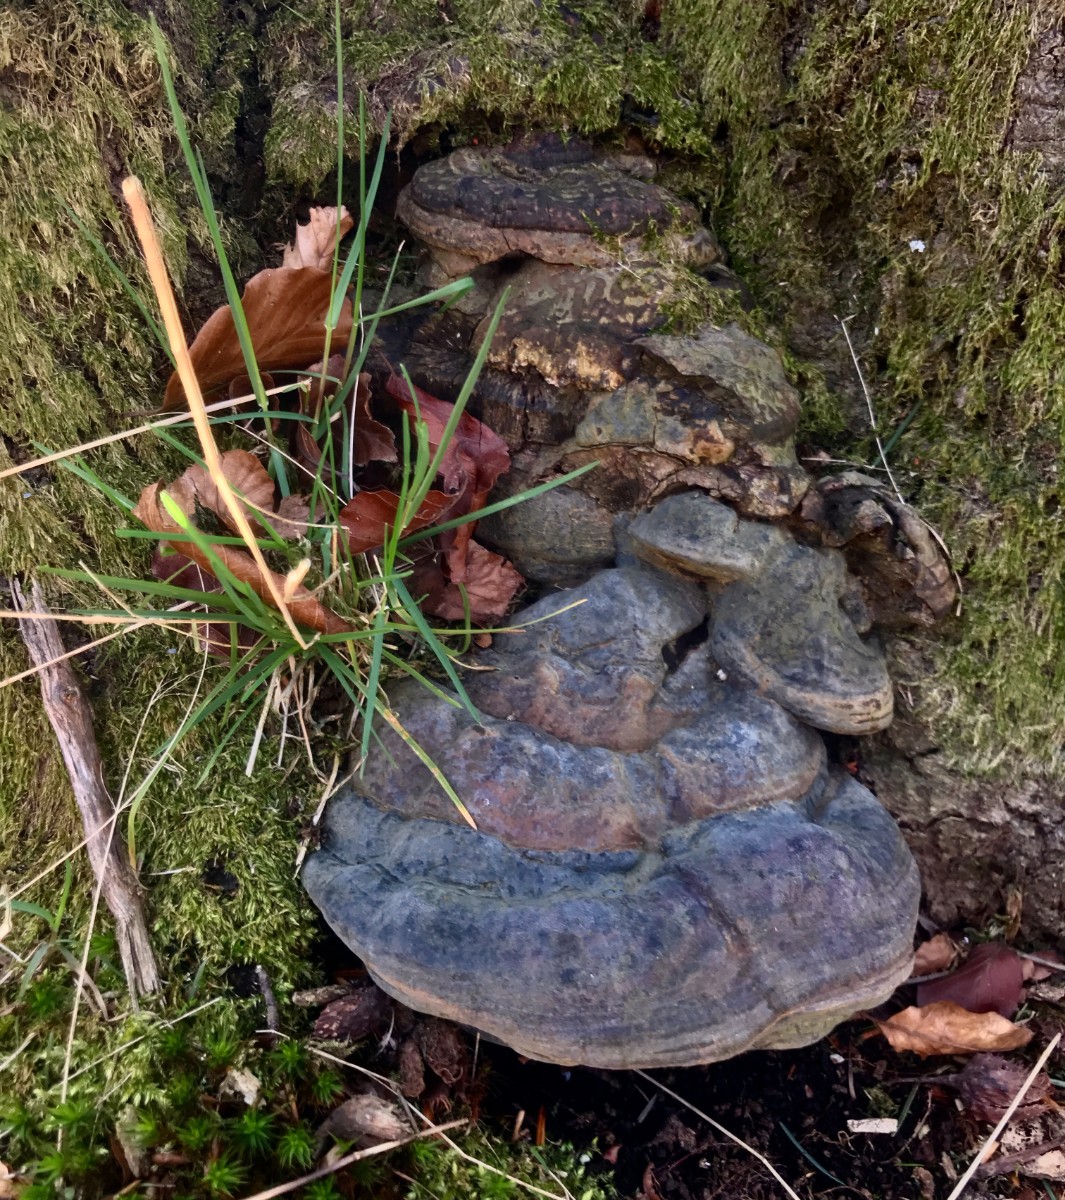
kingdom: Fungi
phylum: Basidiomycota
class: Agaricomycetes
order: Polyporales
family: Polyporaceae
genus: Ganoderma
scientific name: Ganoderma pfeifferi
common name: kobberrød lakporesvamp
